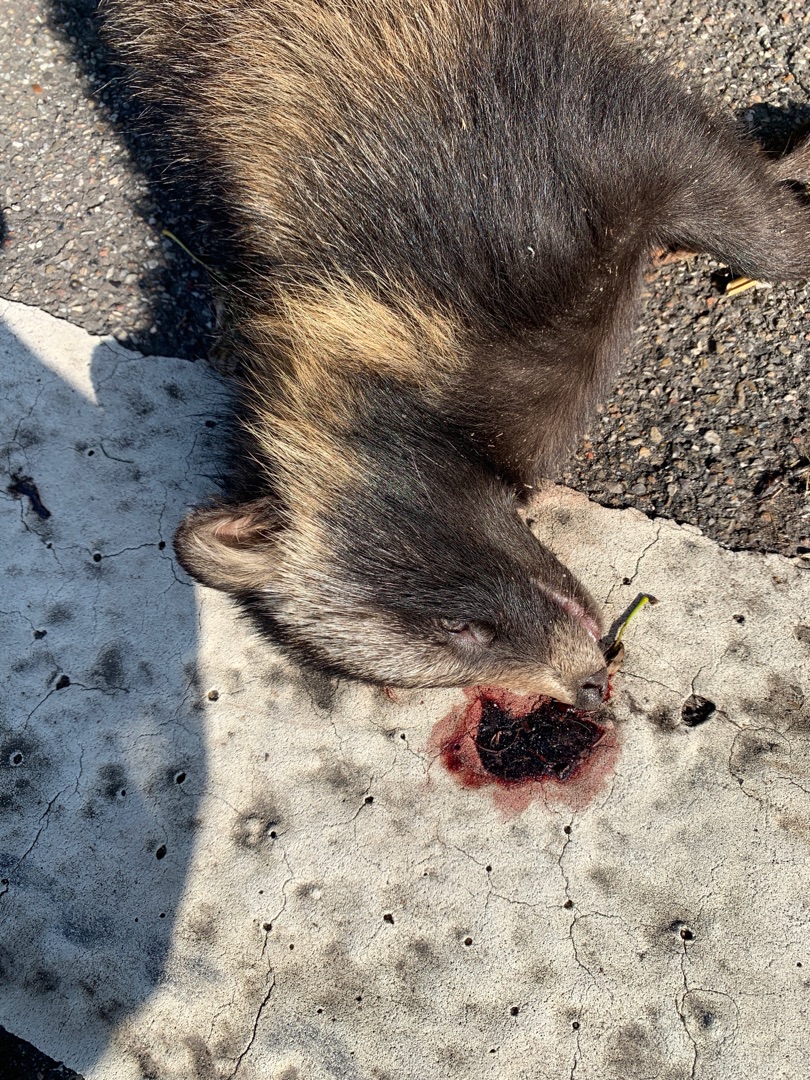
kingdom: Animalia
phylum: Chordata
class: Mammalia
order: Carnivora
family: Canidae
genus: Nyctereutes
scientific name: Nyctereutes procyonoides
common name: Mårhund
